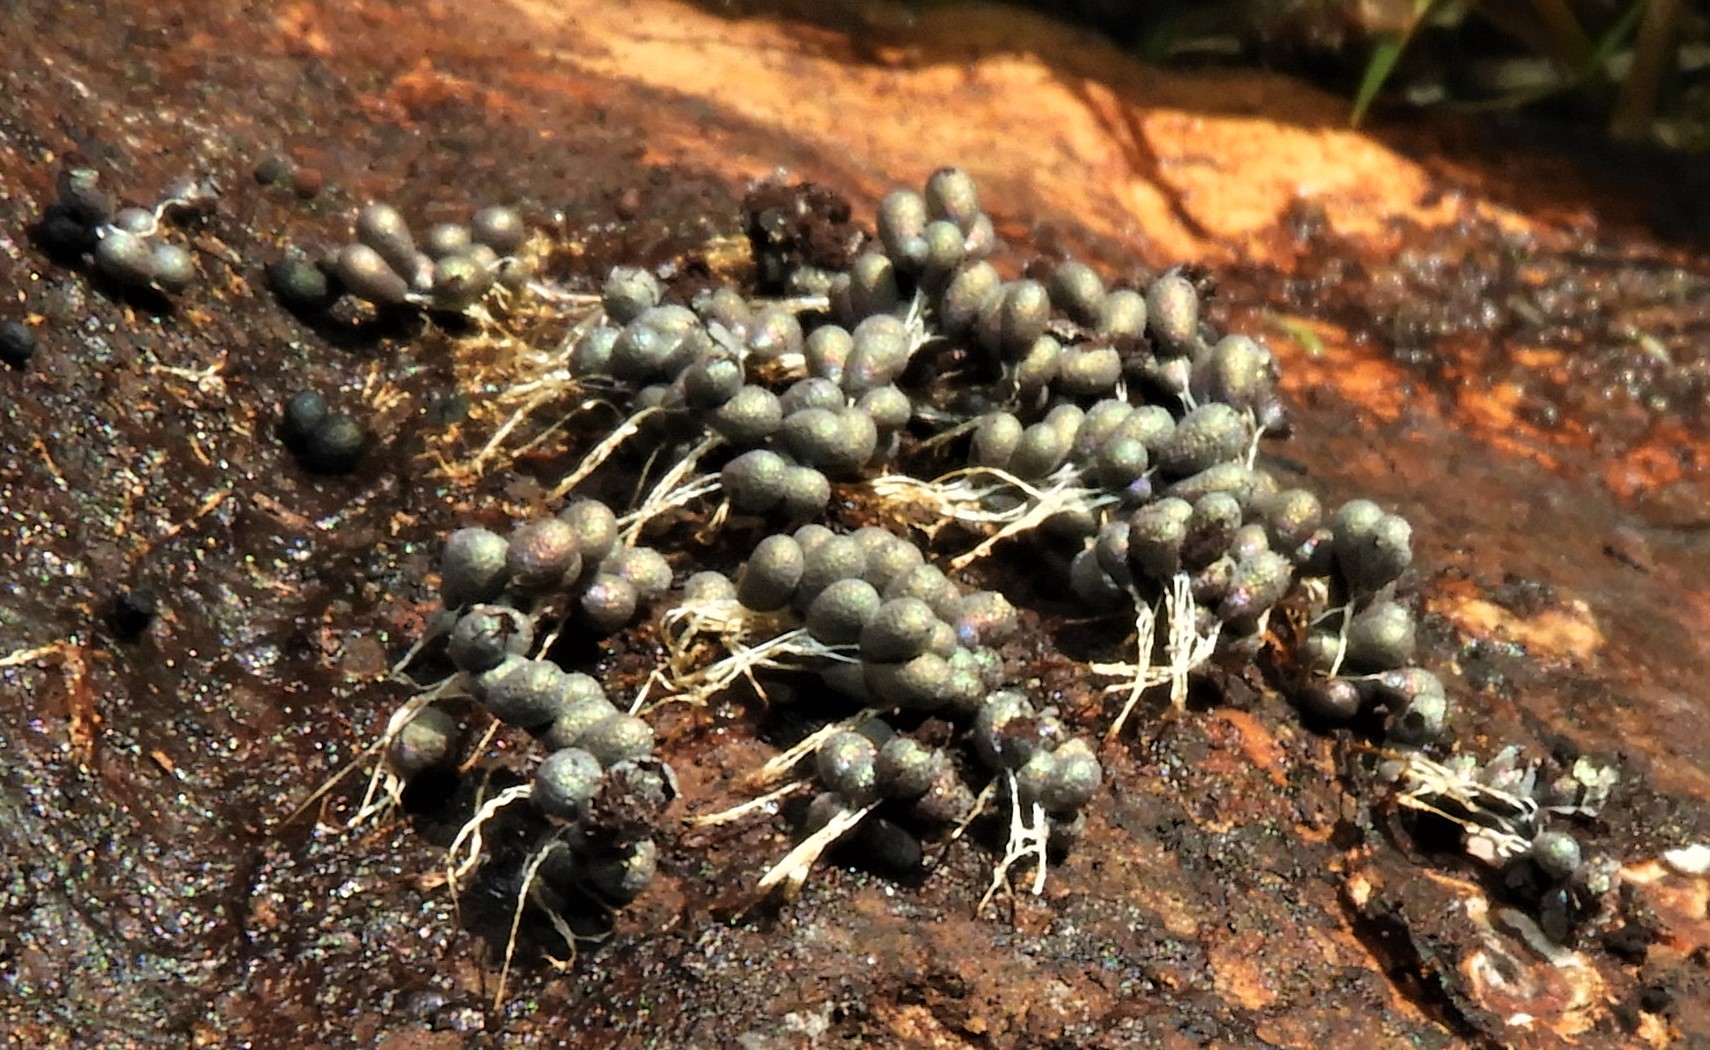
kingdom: Protozoa
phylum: Mycetozoa
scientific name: Mycetozoa
